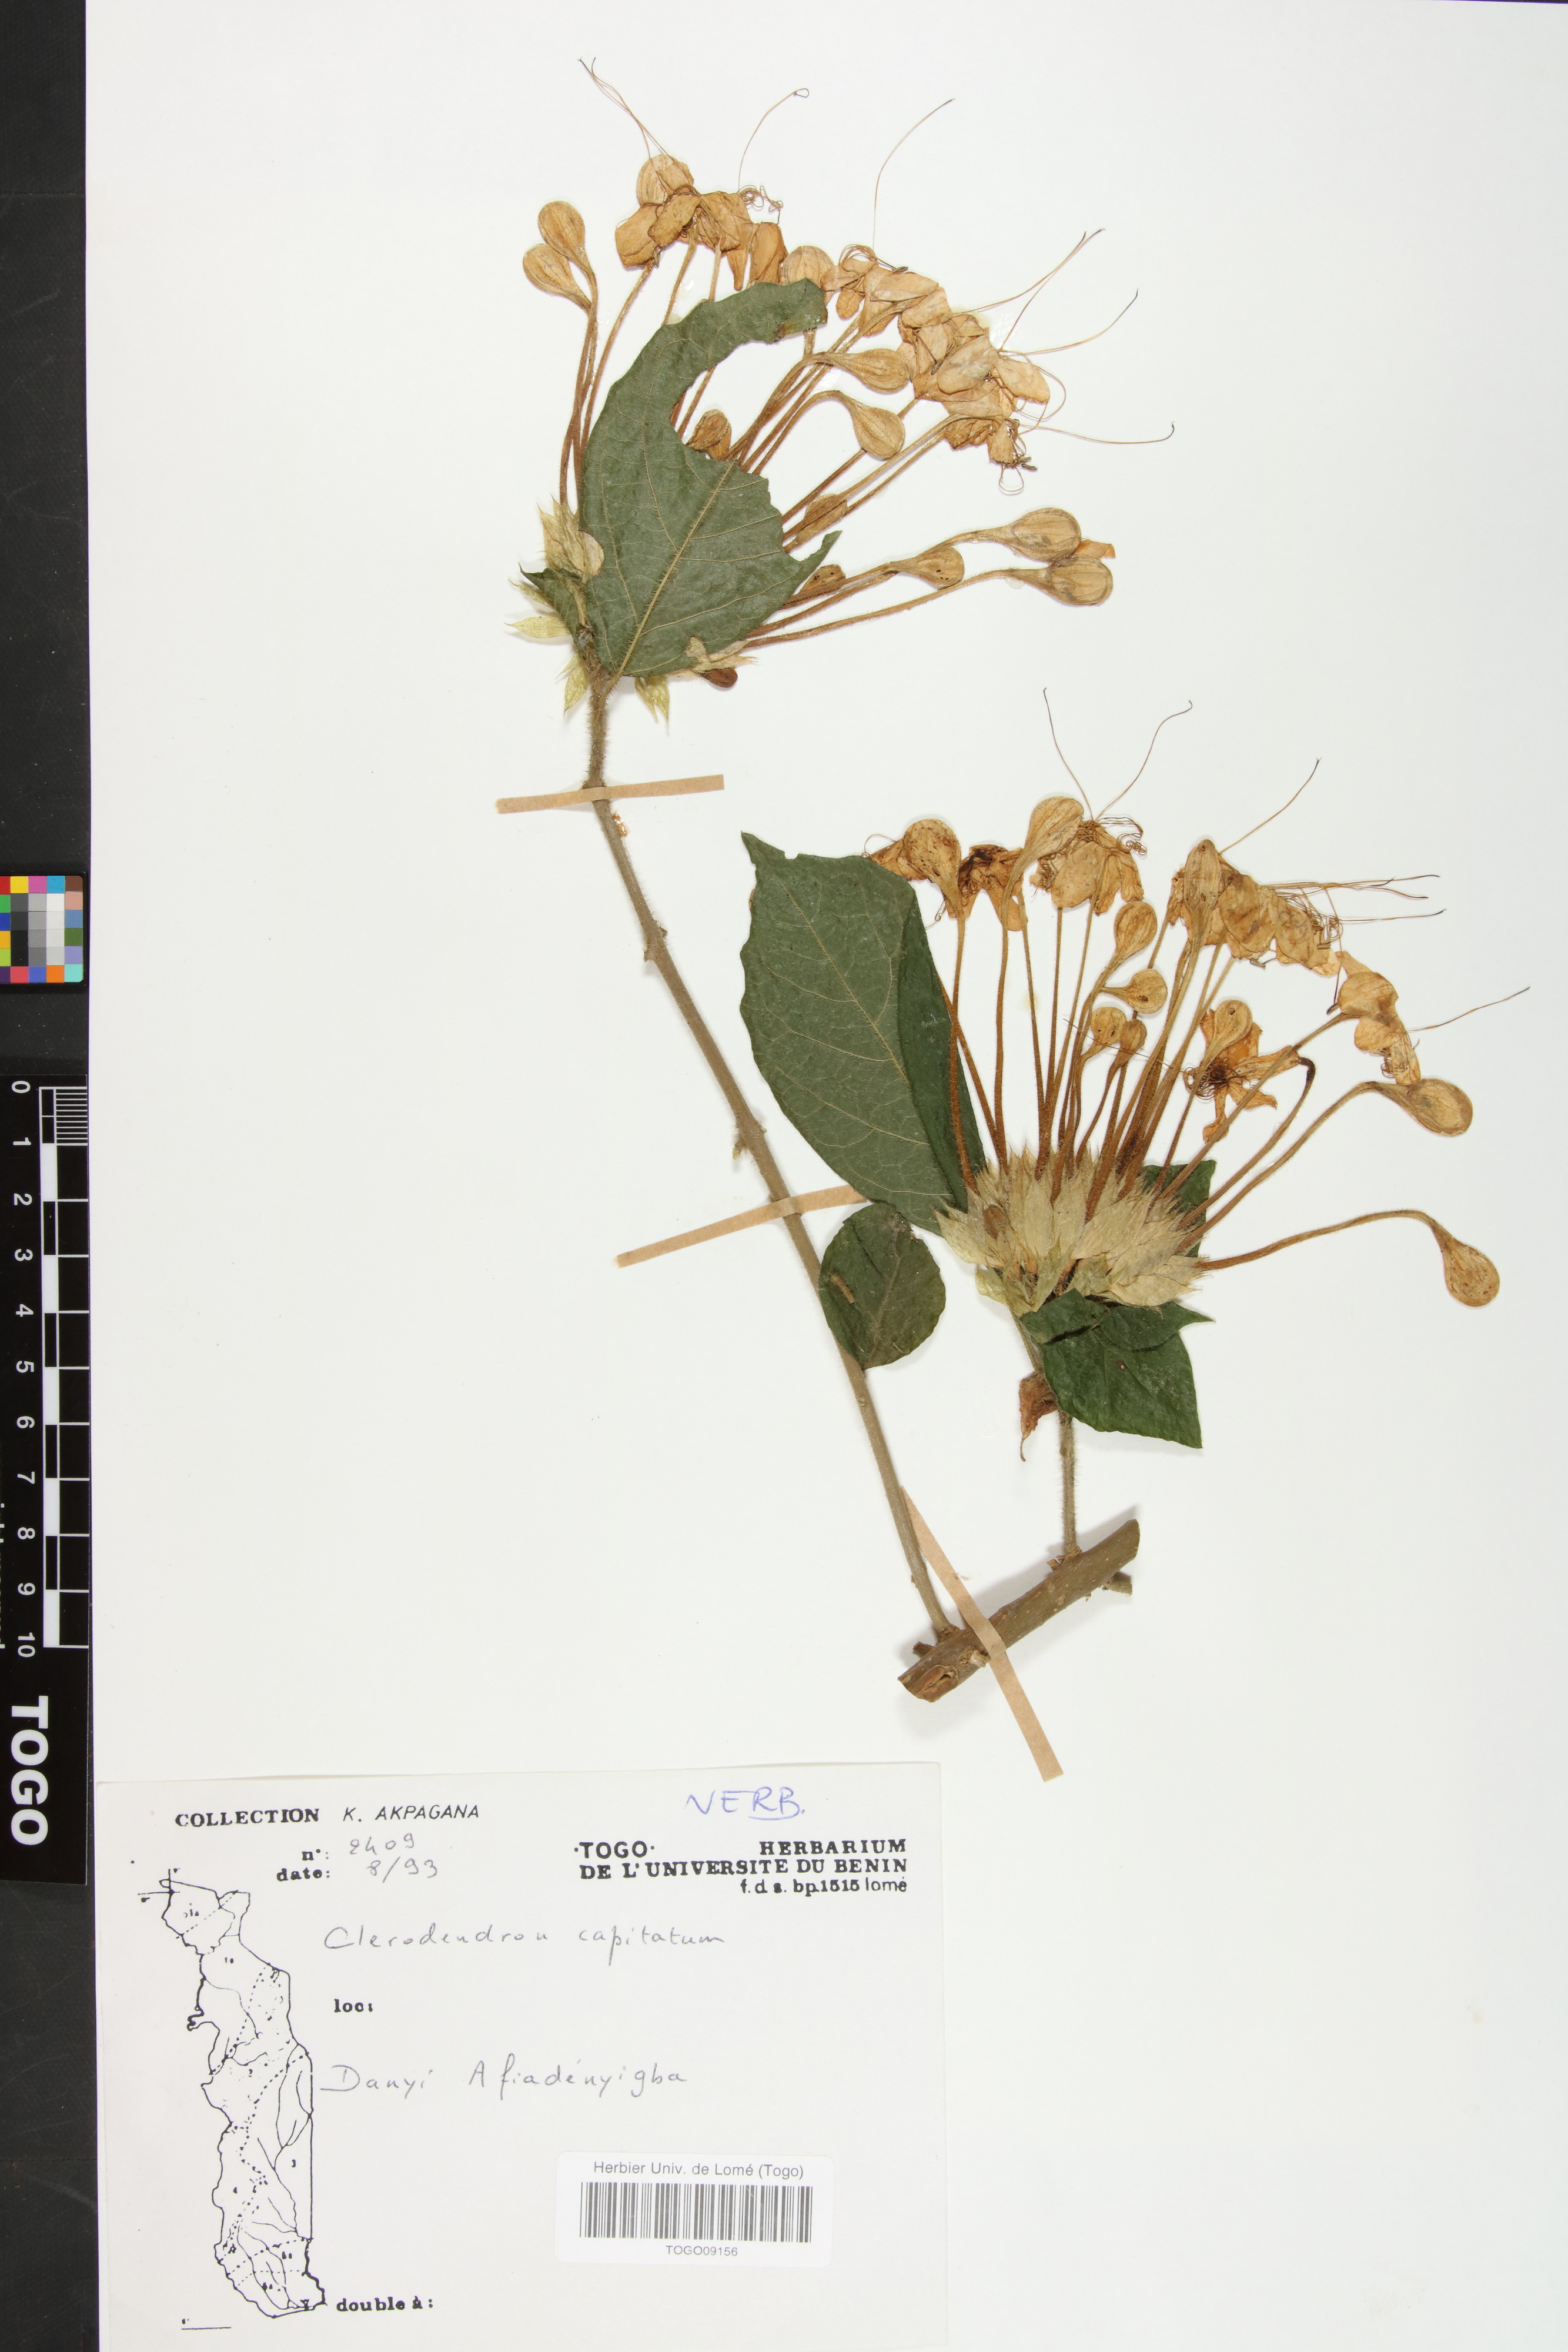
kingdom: Plantae
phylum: Tracheophyta
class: Magnoliopsida
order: Lamiales
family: Lamiaceae
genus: Clerodendrum
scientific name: Clerodendrum
